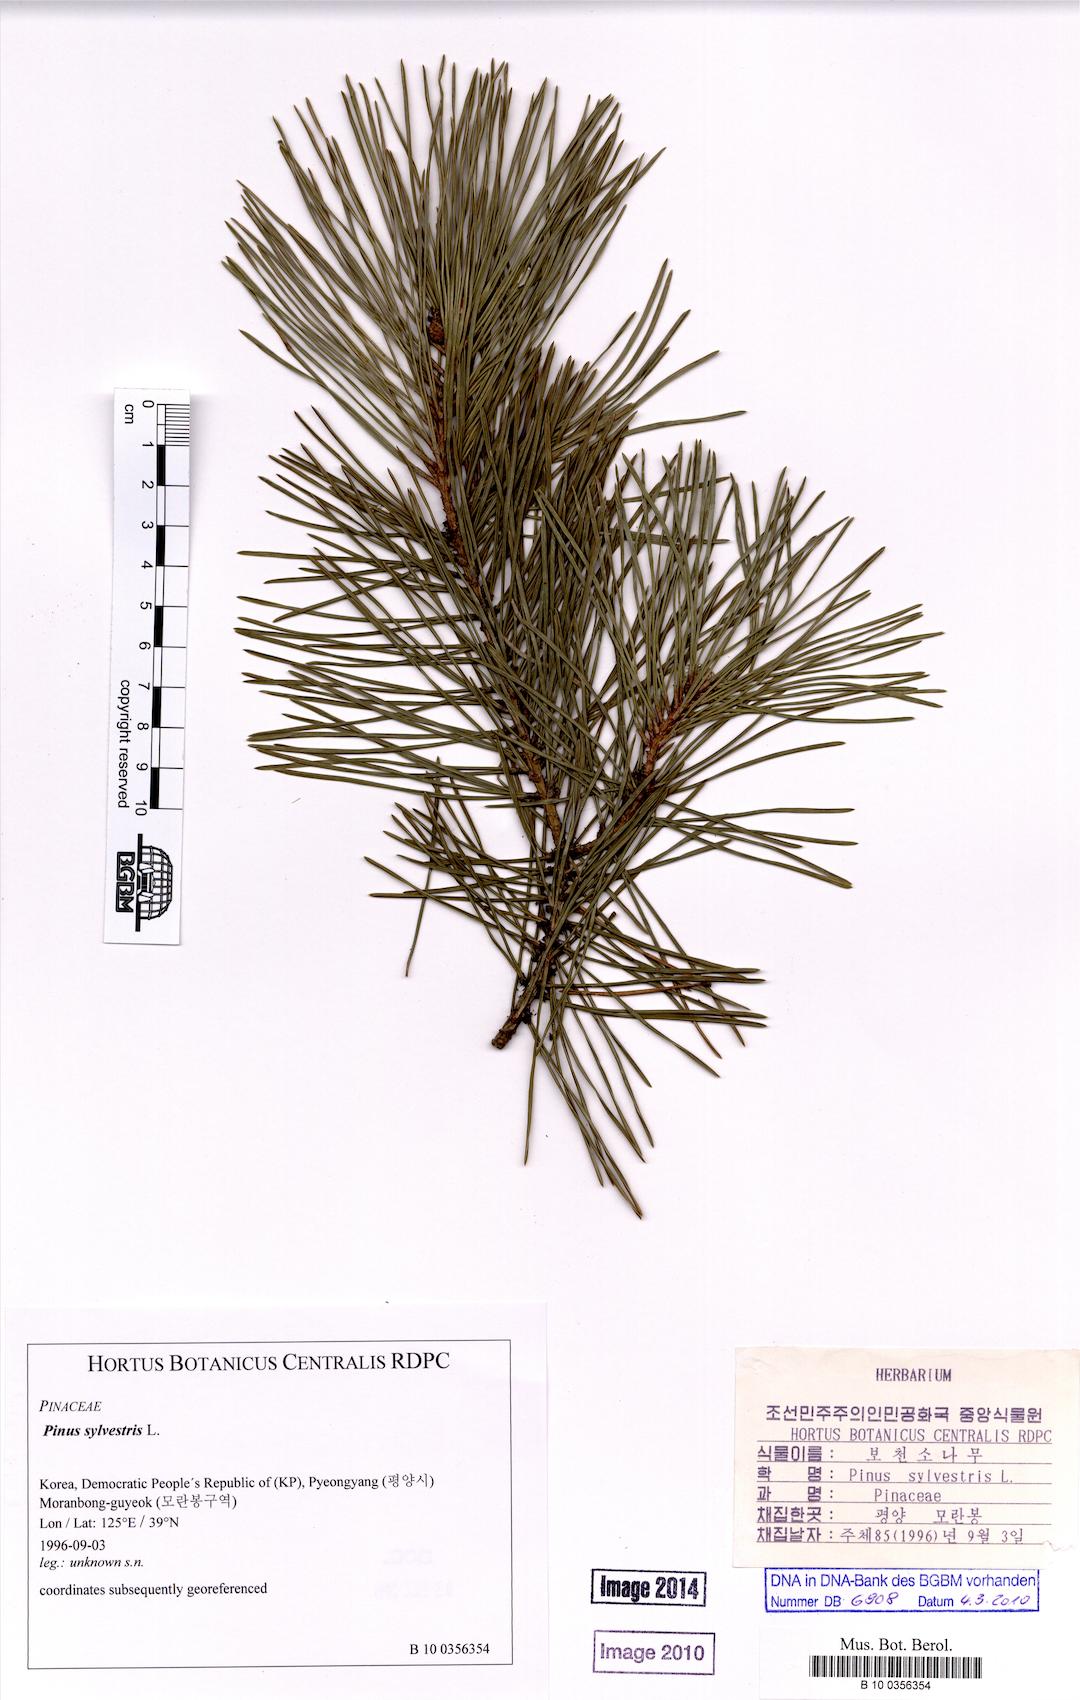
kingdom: Plantae
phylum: Tracheophyta
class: Pinopsida
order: Pinales
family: Pinaceae
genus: Pinus
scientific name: Pinus sylvestris
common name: Scots pine
